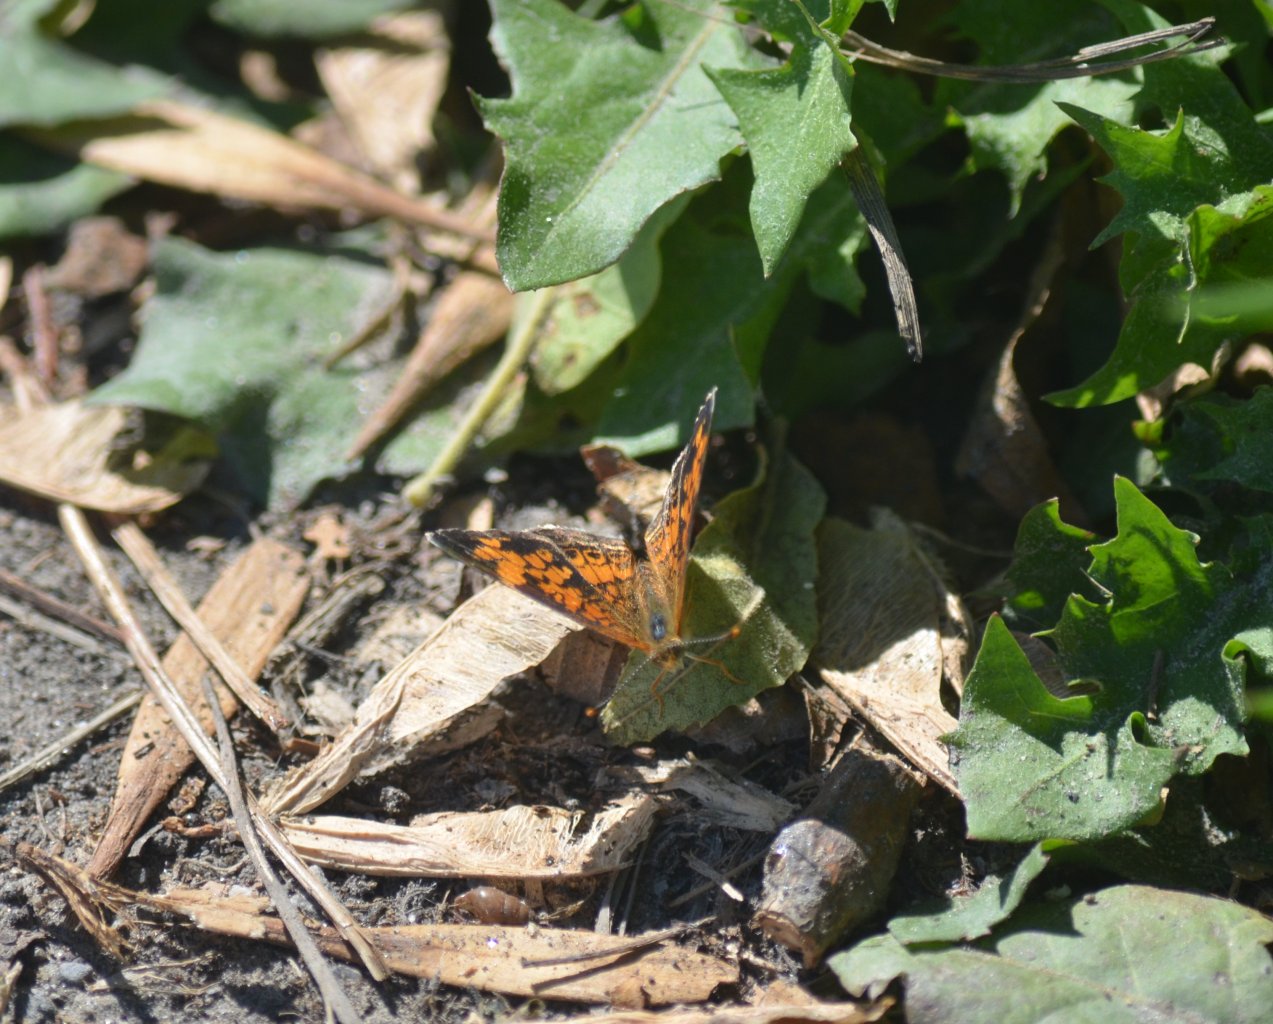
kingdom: Animalia
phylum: Arthropoda
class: Insecta
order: Lepidoptera
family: Nymphalidae
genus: Phyciodes
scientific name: Phyciodes tharos
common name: Northern Crescent
